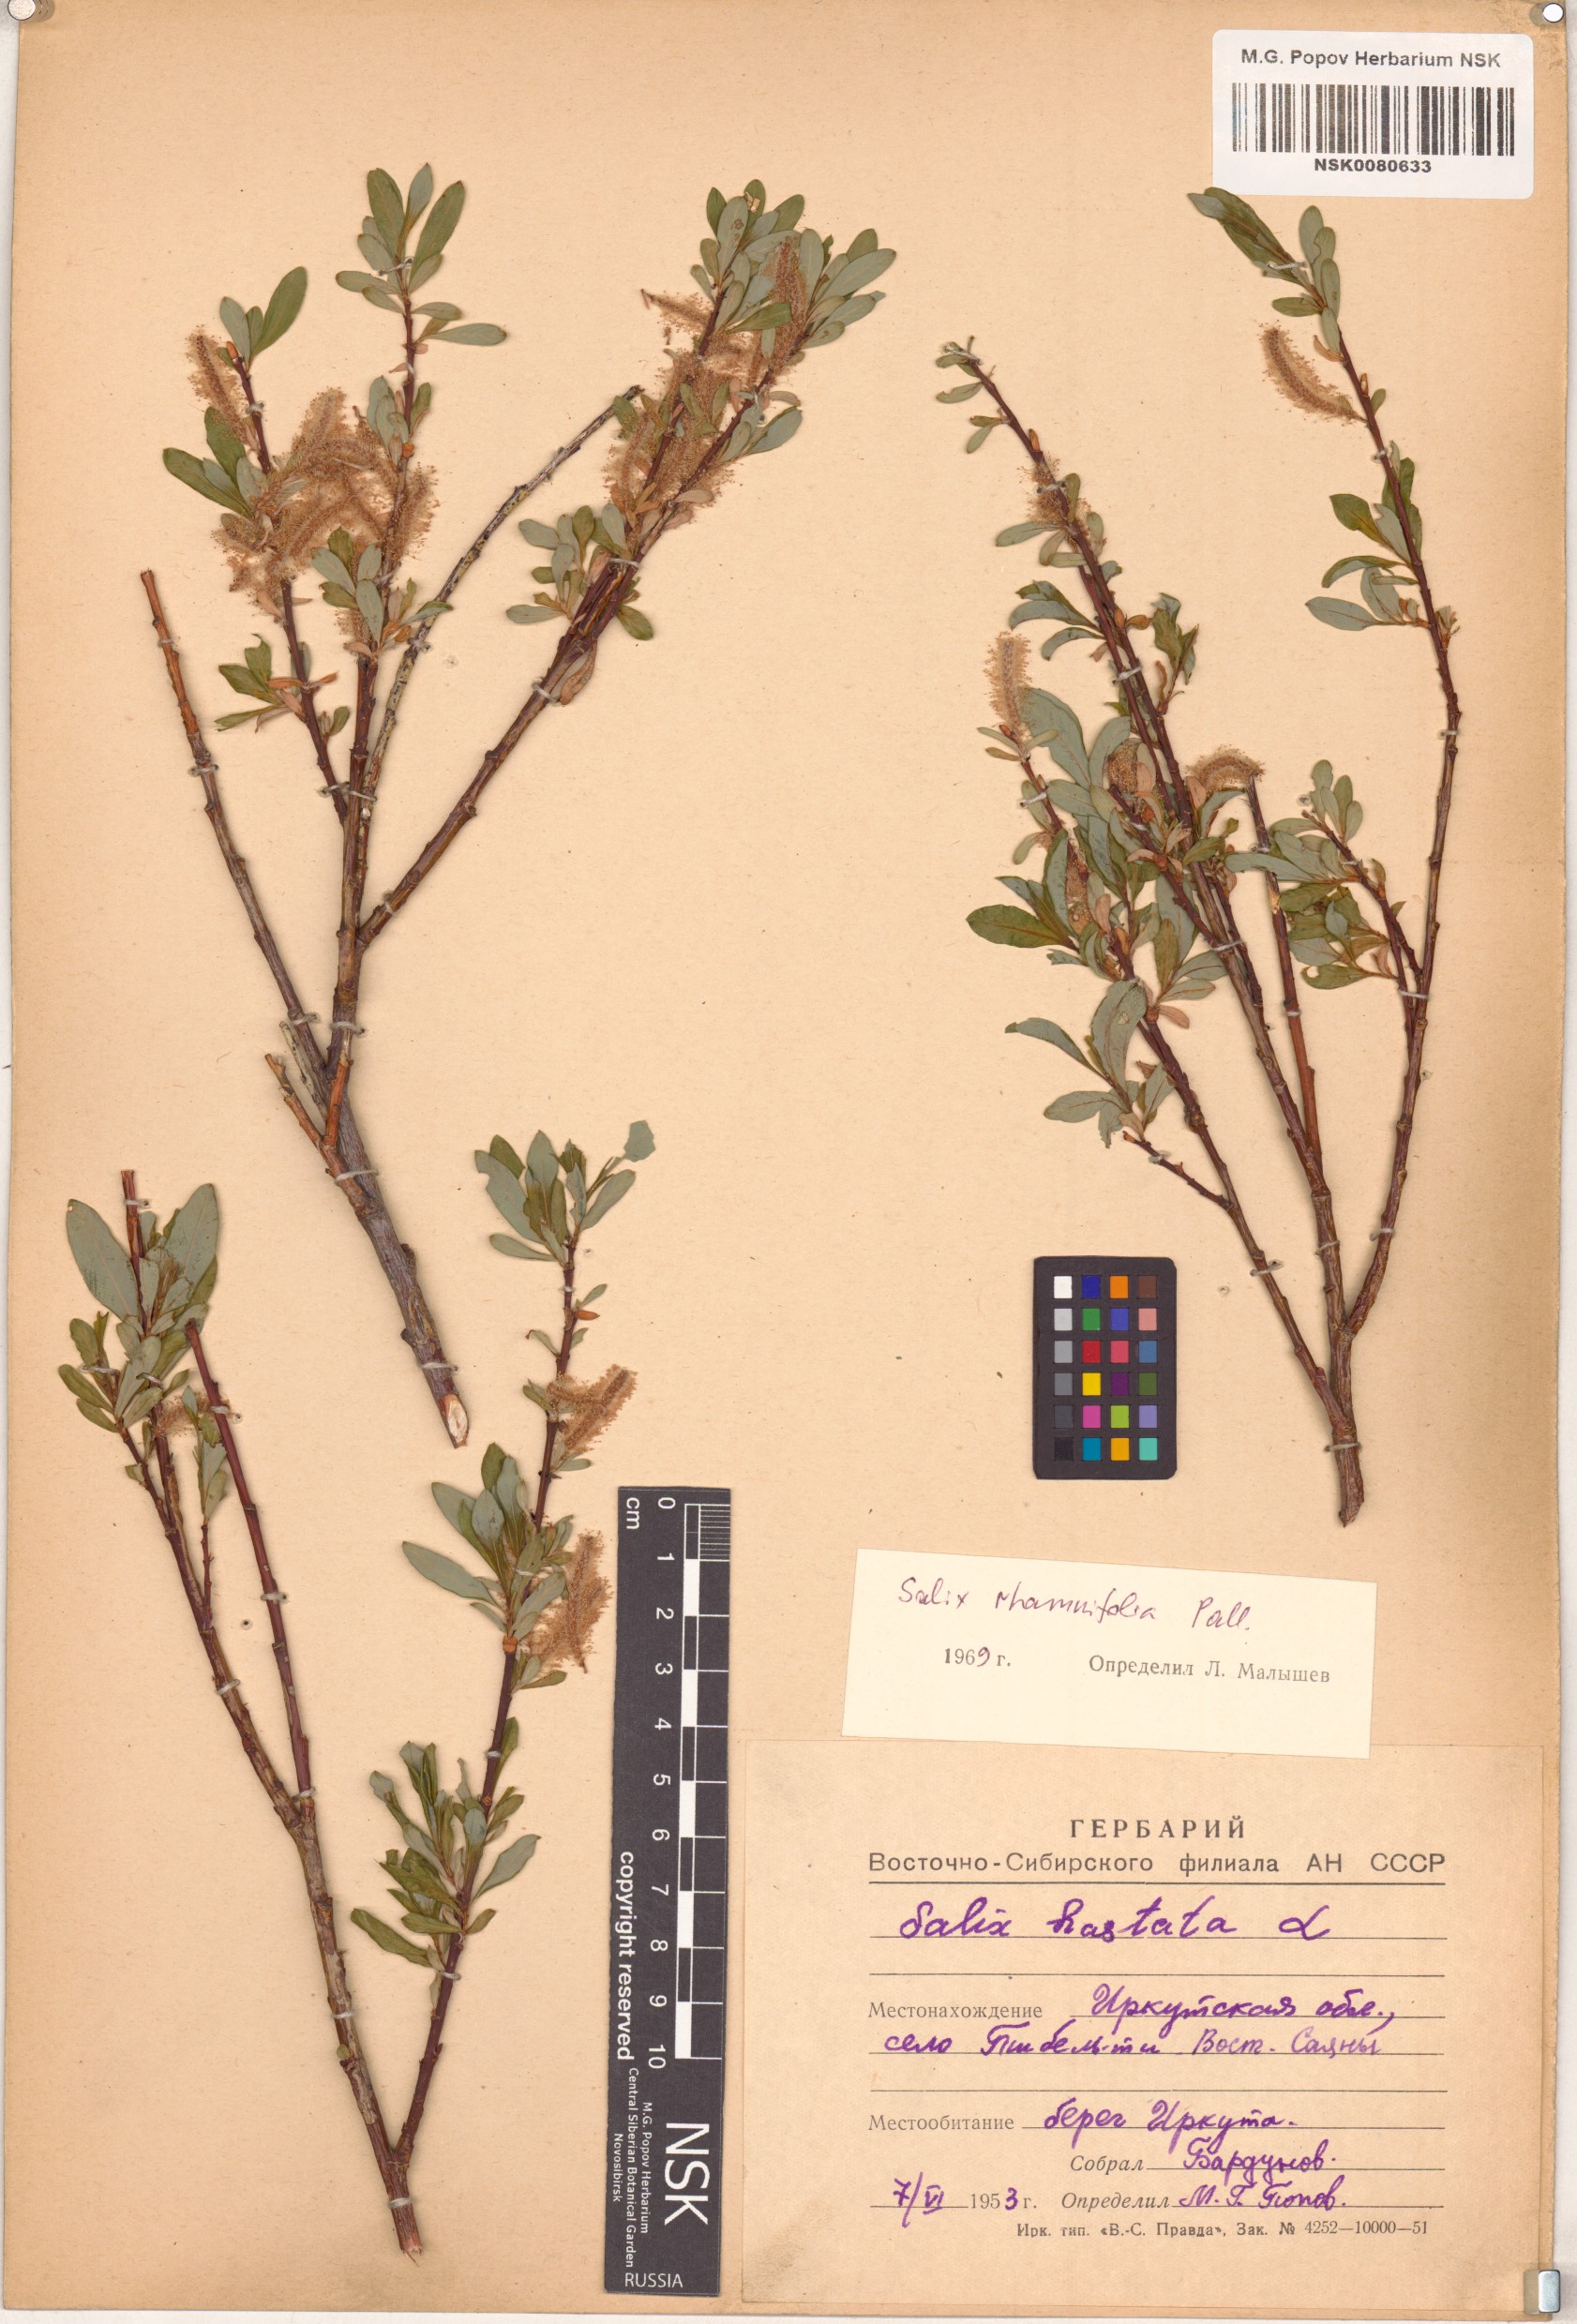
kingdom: Plantae
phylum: Tracheophyta
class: Magnoliopsida
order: Malpighiales
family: Salicaceae
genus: Salix
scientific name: Salix rhamnifolia
